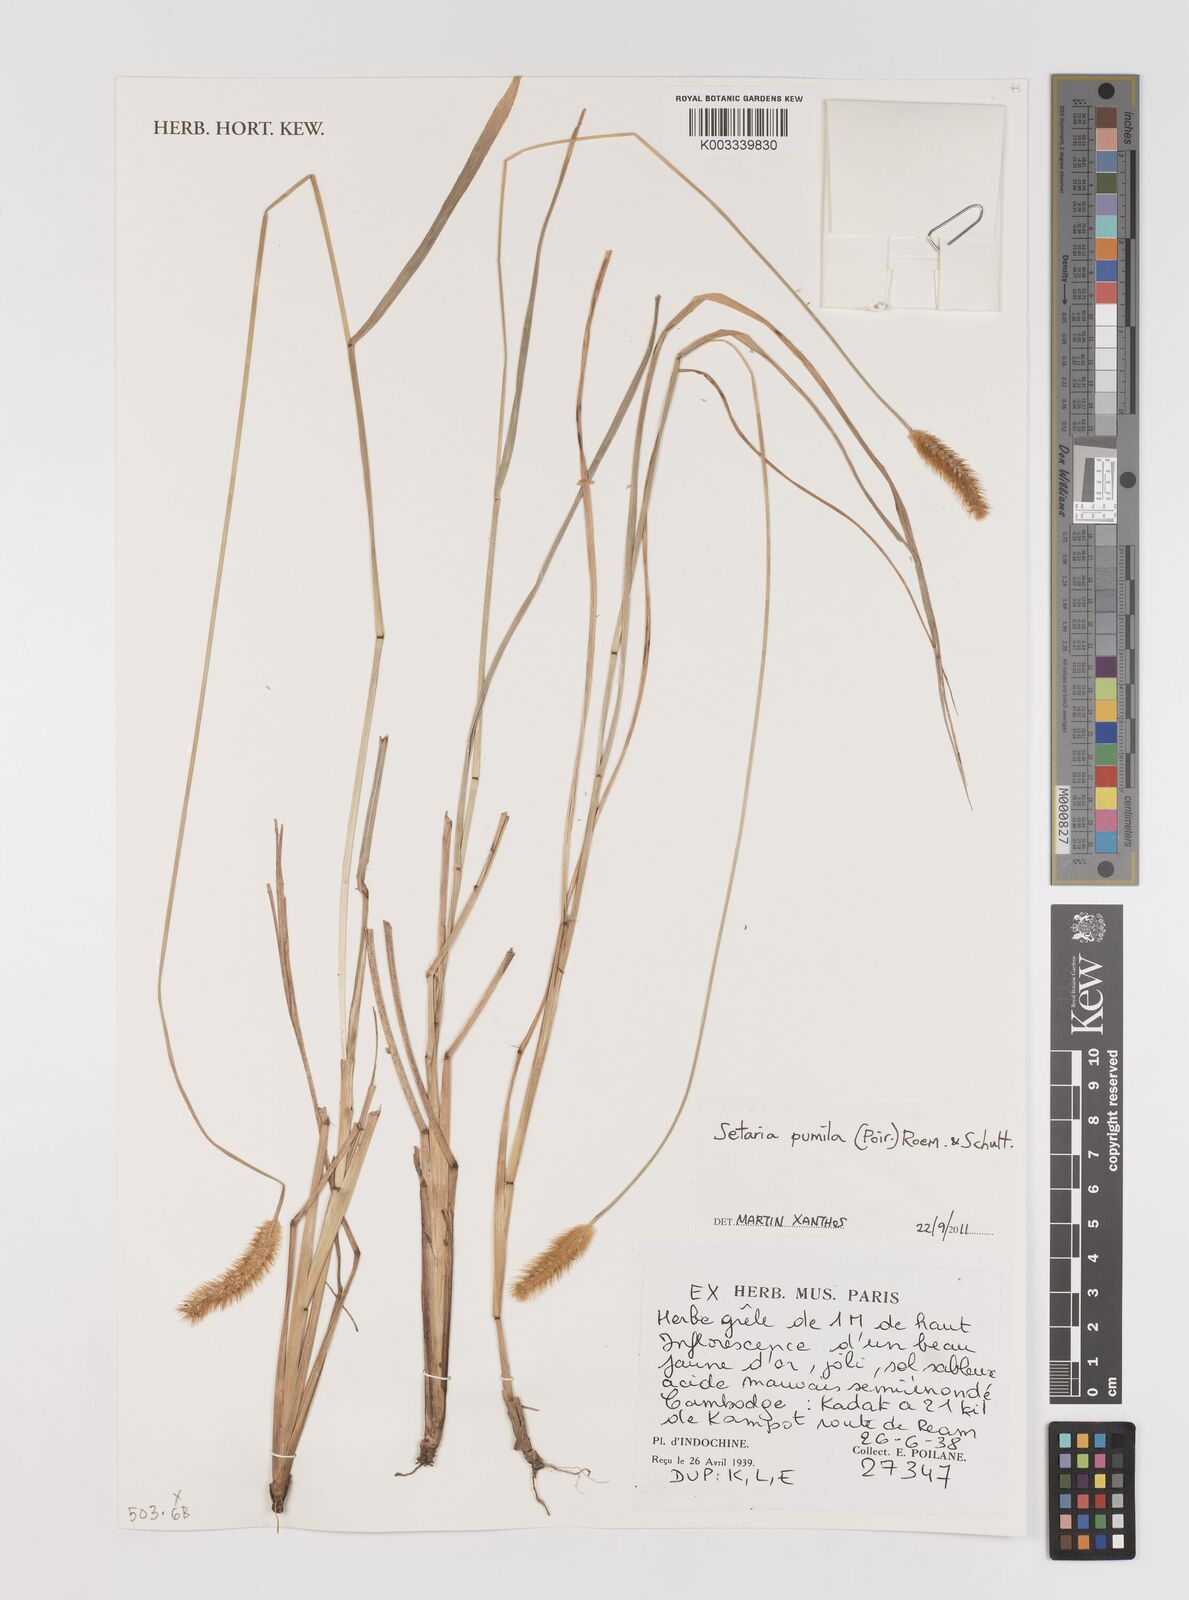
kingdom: Plantae
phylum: Tracheophyta
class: Liliopsida
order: Poales
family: Poaceae
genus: Setaria
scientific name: Setaria pumila
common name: Yellow bristle-grass
